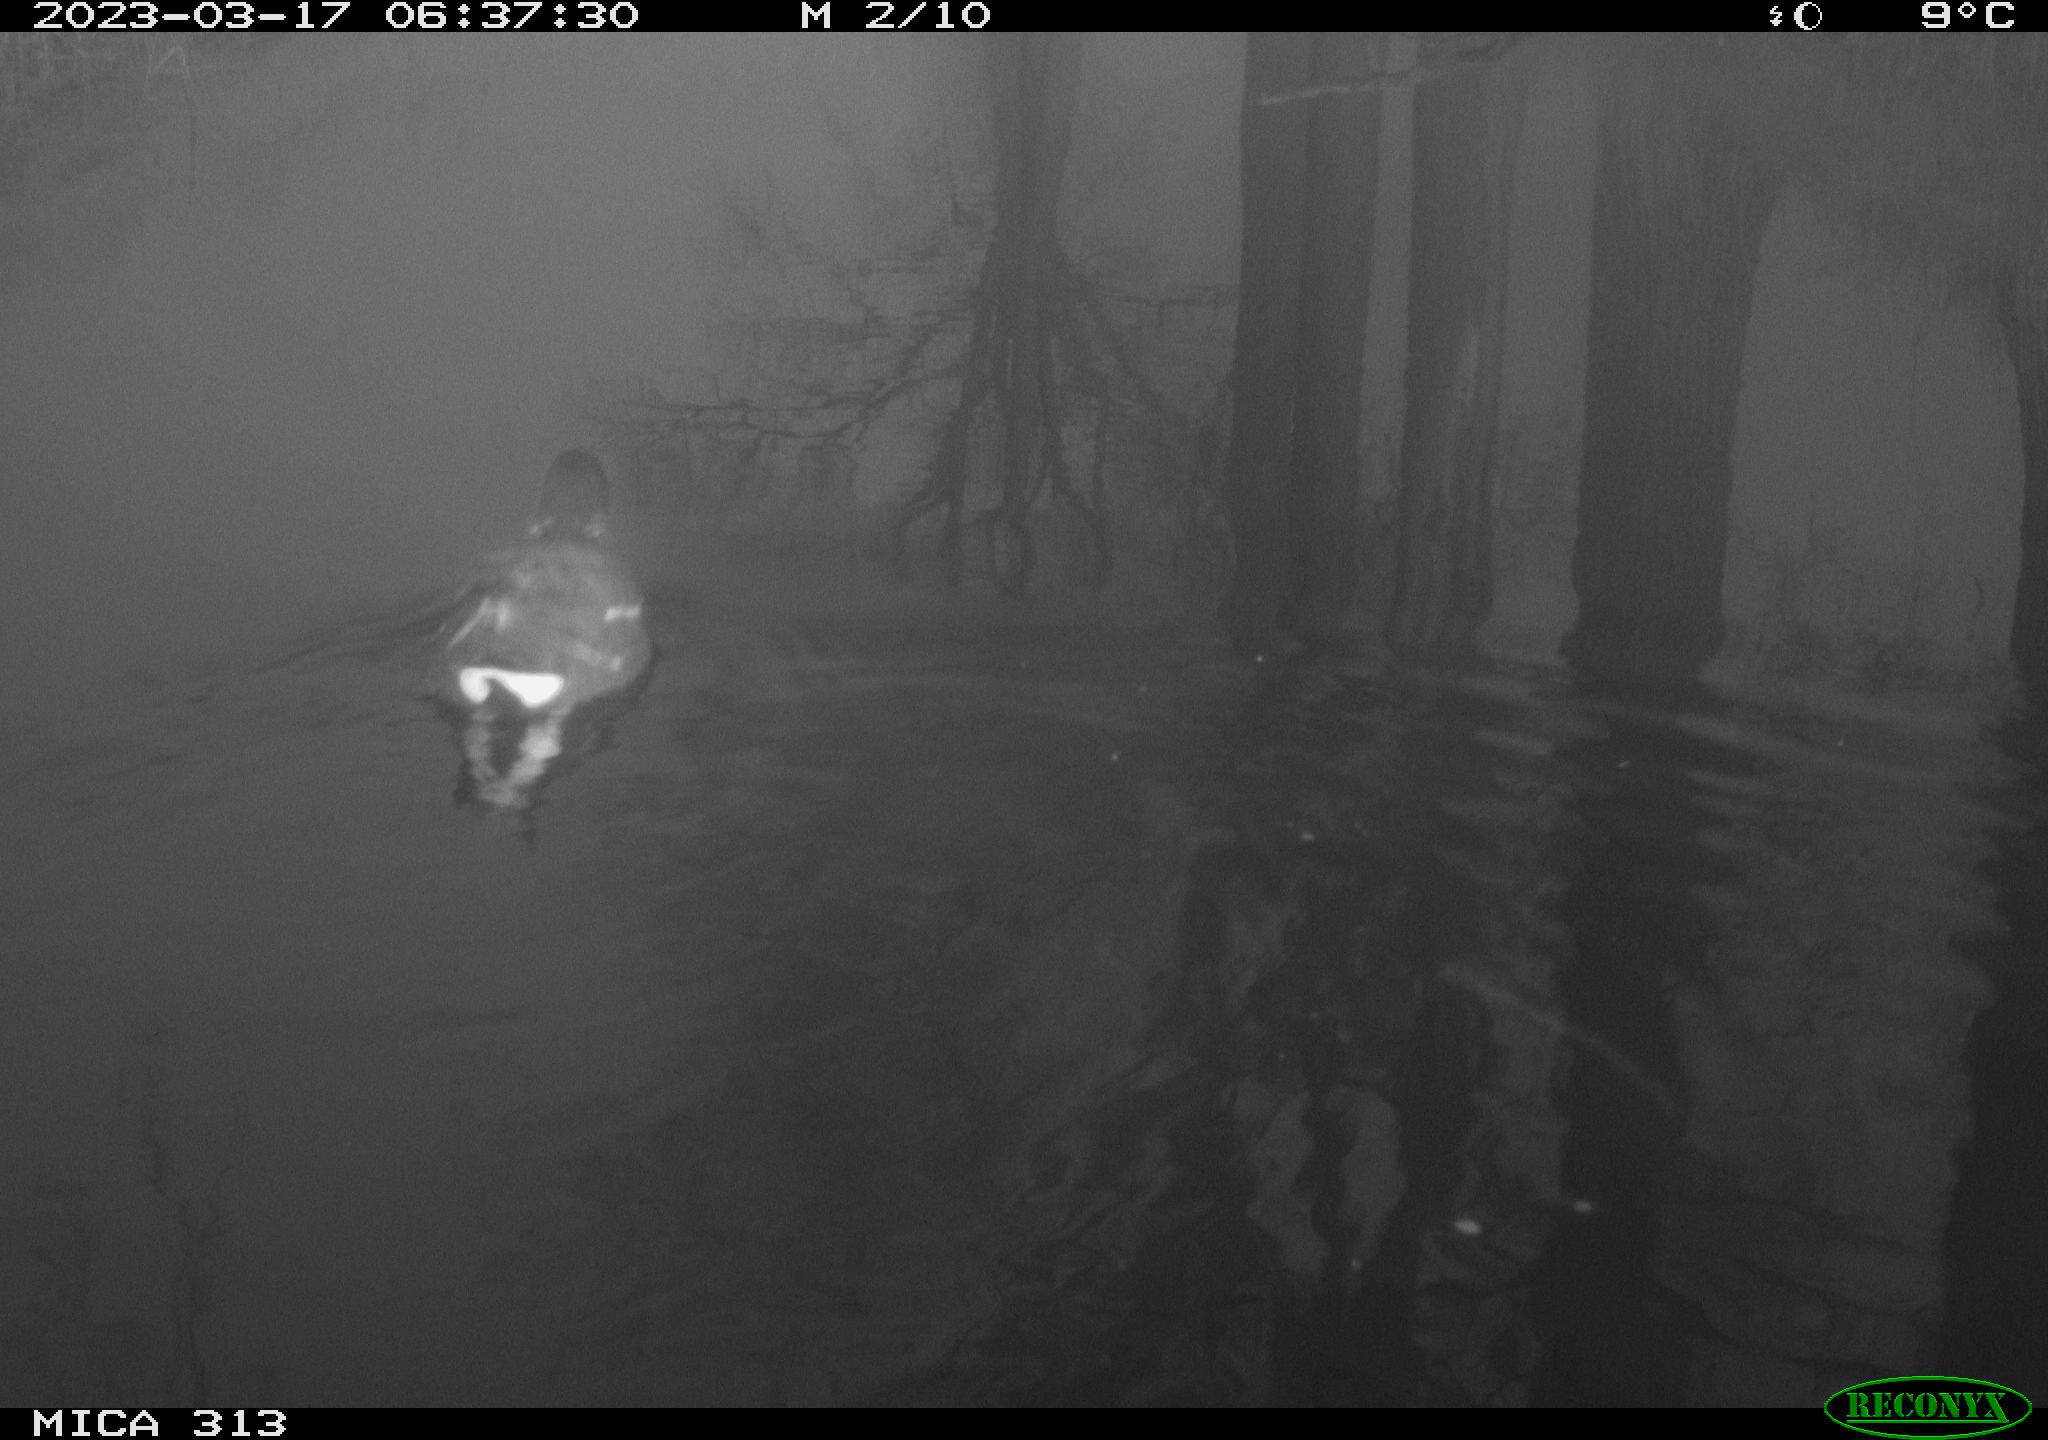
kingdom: Animalia
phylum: Chordata
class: Aves
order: Gruiformes
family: Rallidae
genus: Gallinula
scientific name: Gallinula chloropus
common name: Common moorhen
